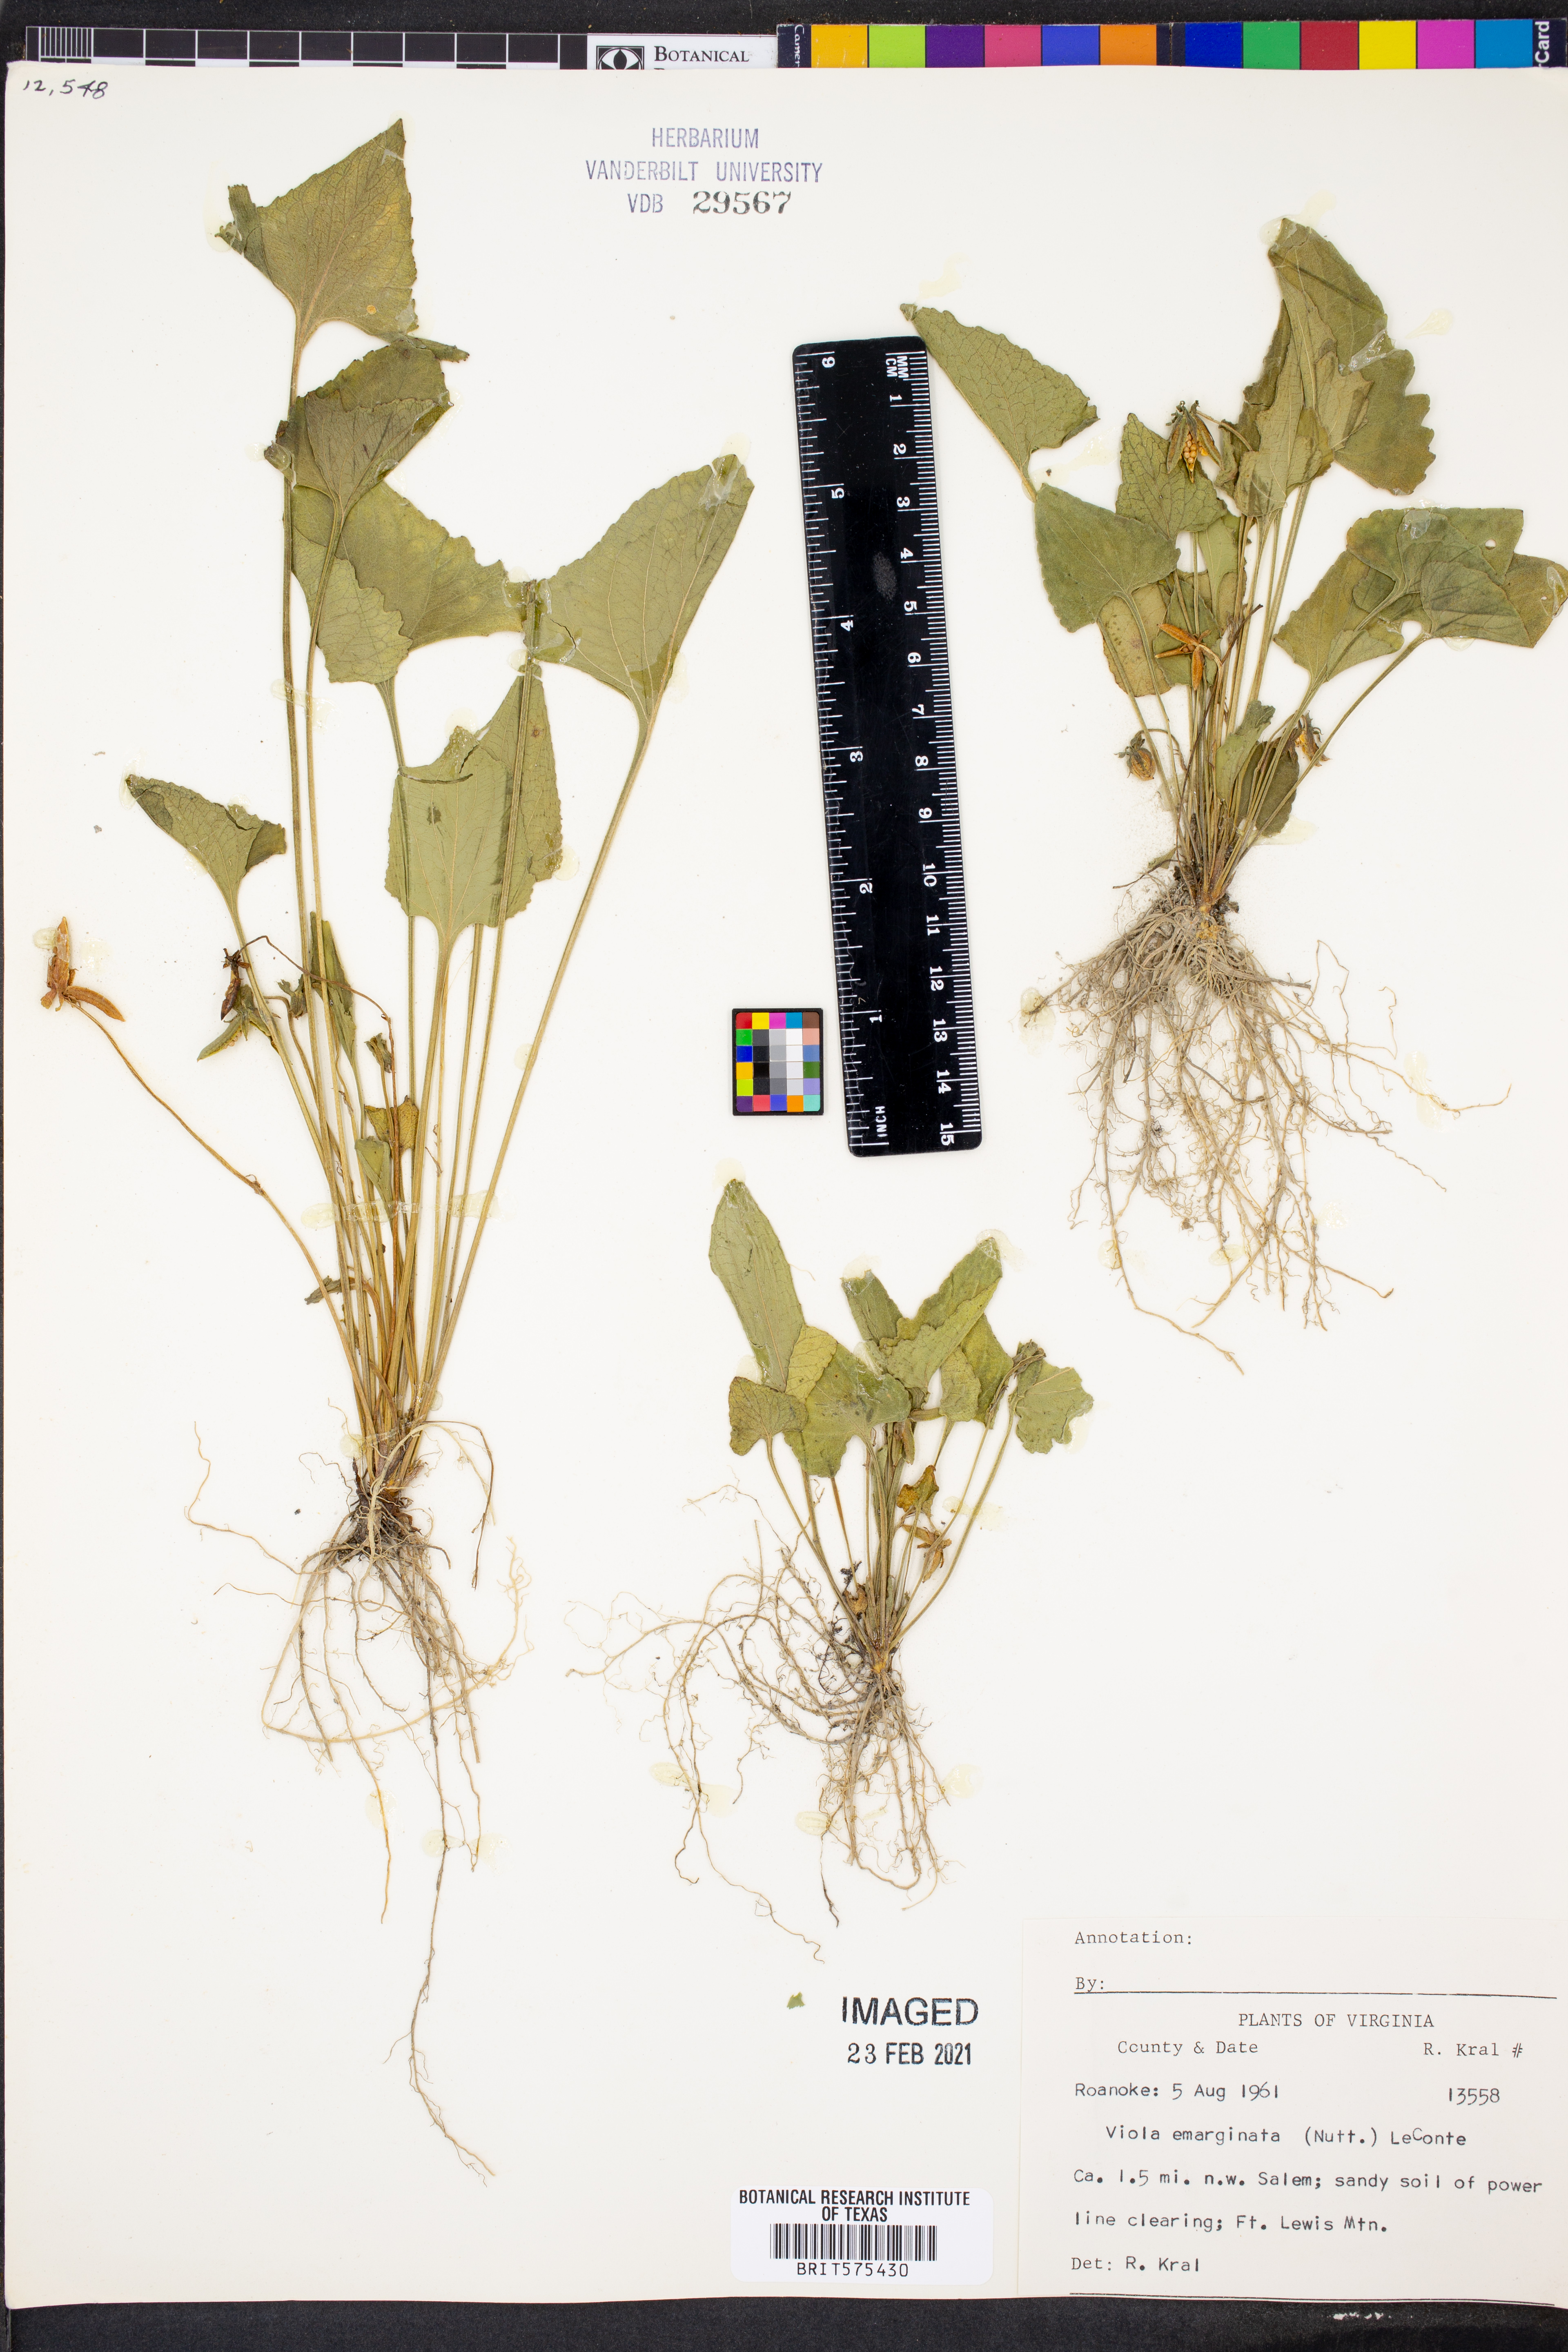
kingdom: Plantae
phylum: Tracheophyta
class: Magnoliopsida
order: Malpighiales
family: Violaceae
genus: Viola
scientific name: Viola emarginata
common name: Triangle-leaved violet
